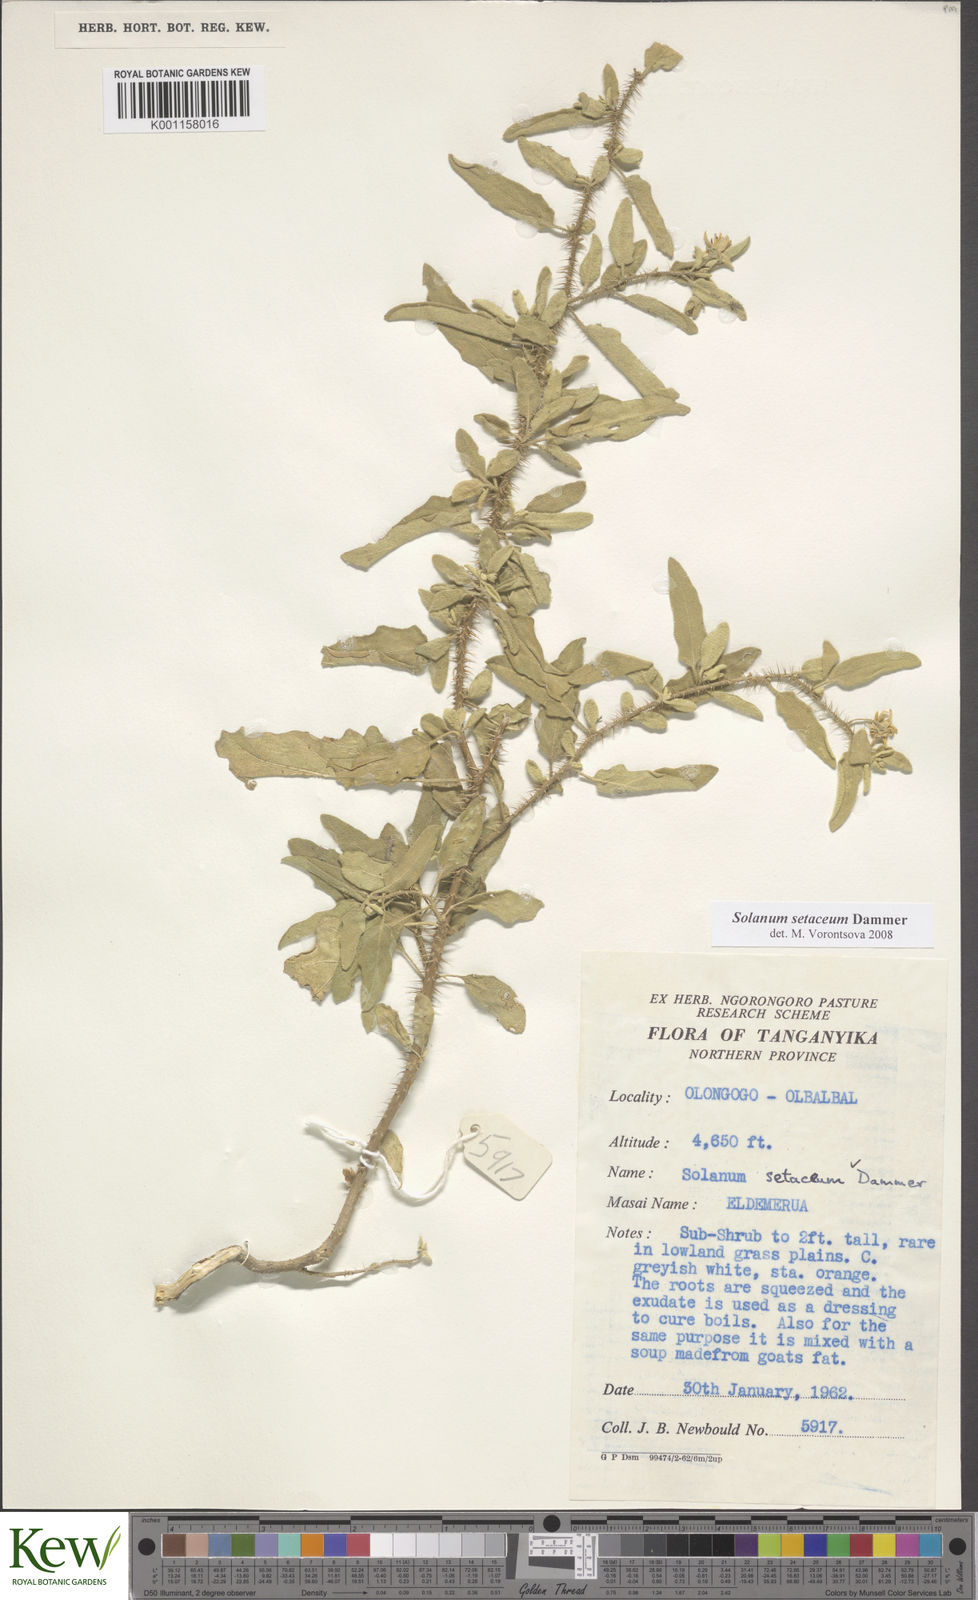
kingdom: Plantae
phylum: Tracheophyta
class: Magnoliopsida
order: Solanales
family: Solanaceae
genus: Solanum
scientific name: Solanum setaceum
